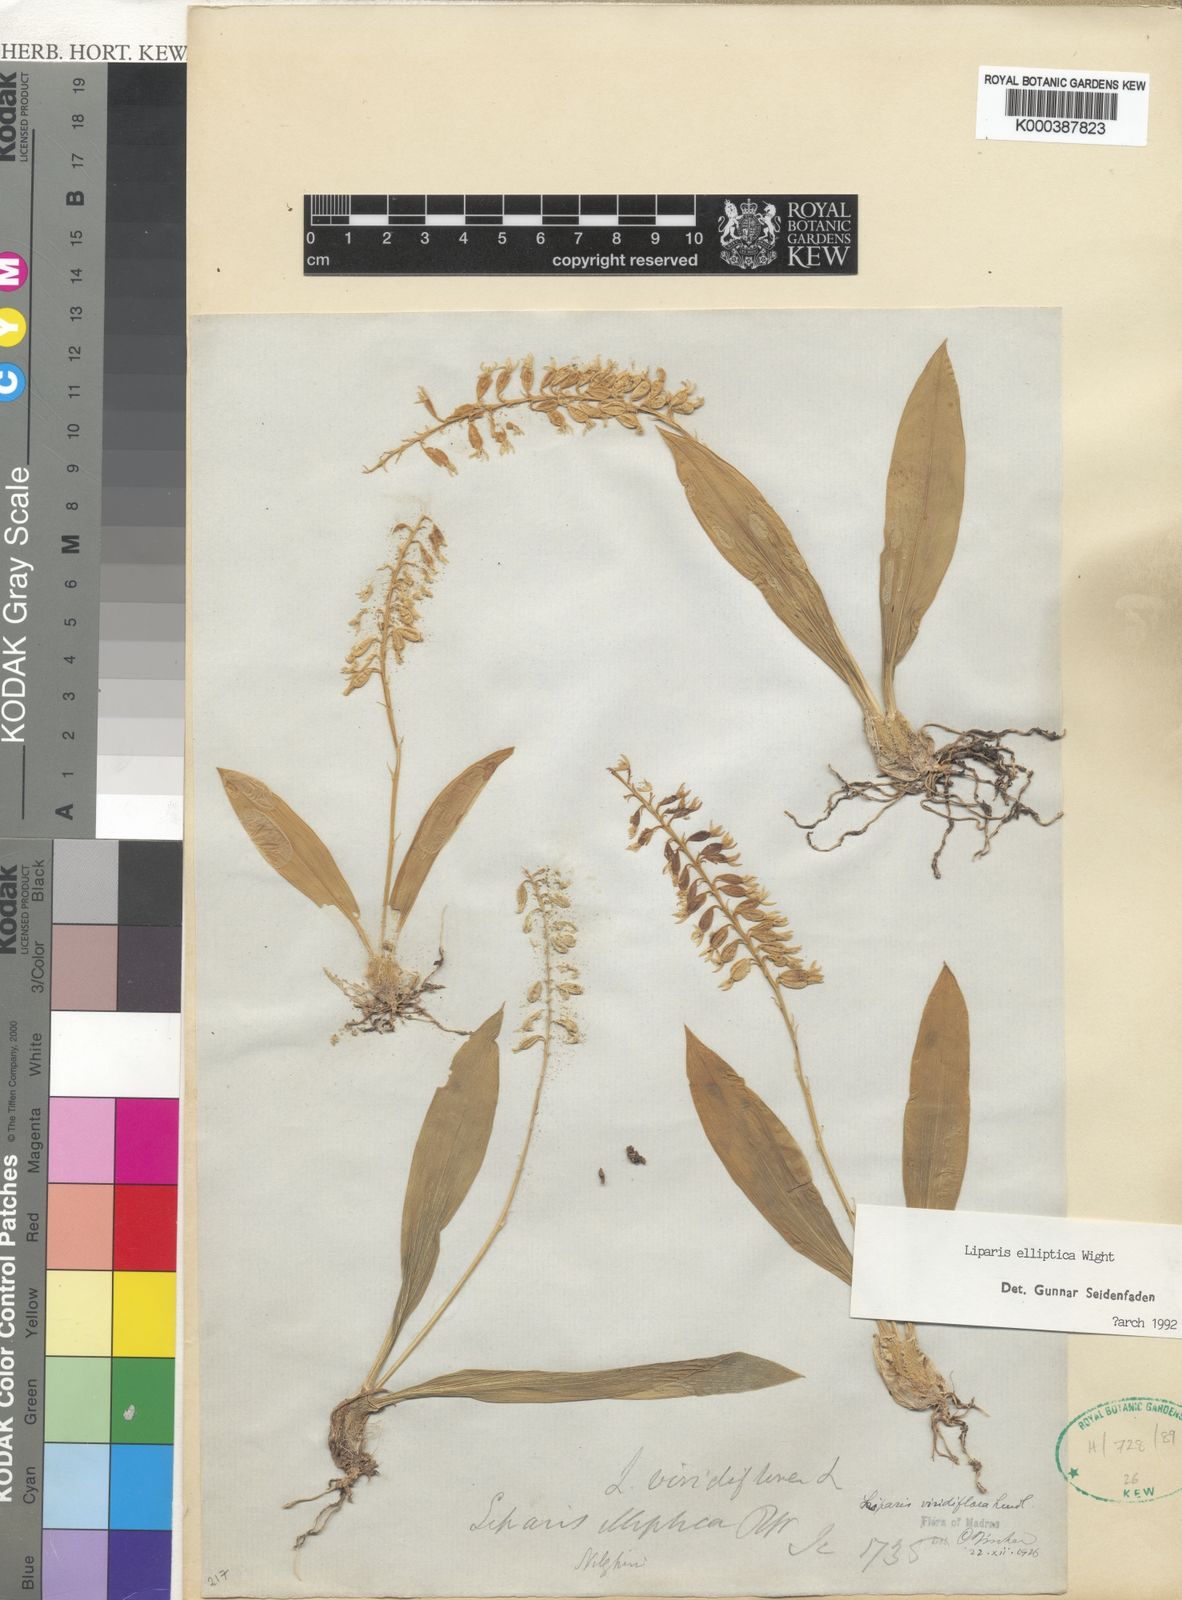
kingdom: Plantae
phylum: Tracheophyta
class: Liliopsida
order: Asparagales
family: Orchidaceae
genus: Liparis
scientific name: Liparis elliptica
